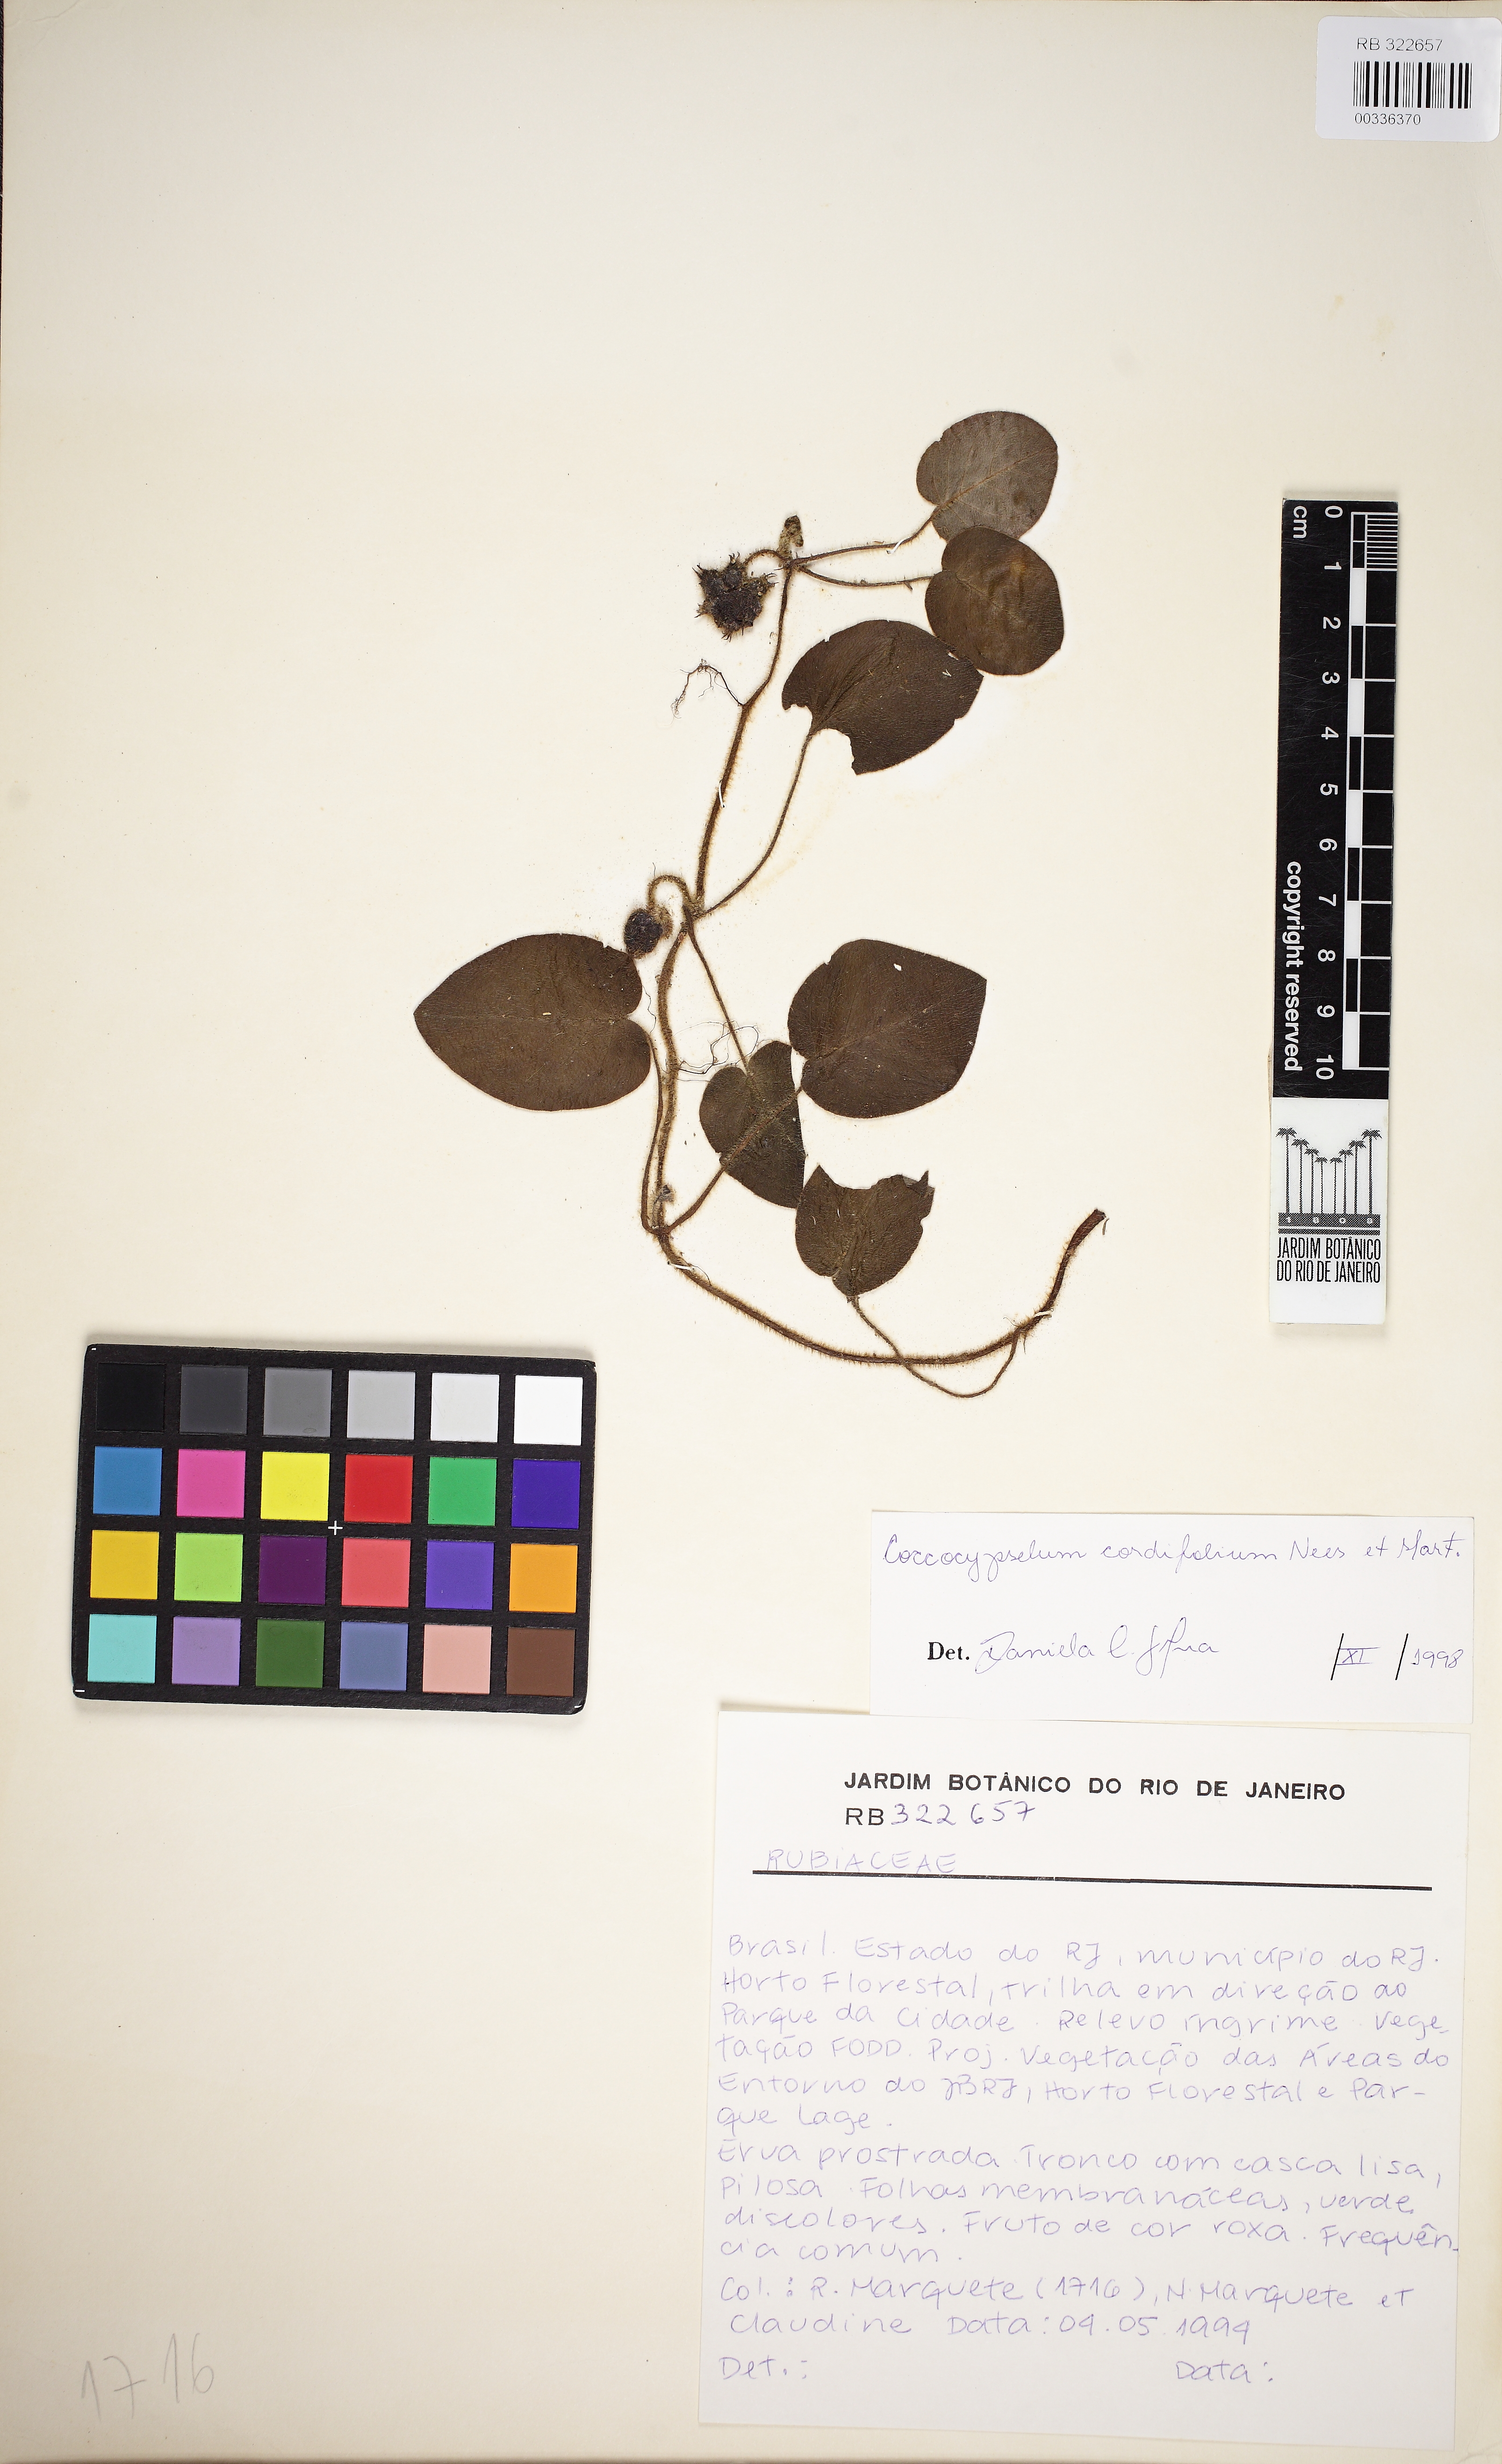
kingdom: Plantae
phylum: Tracheophyta
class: Magnoliopsida
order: Gentianales
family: Rubiaceae
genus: Coccocypselum
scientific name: Coccocypselum cordifolium
